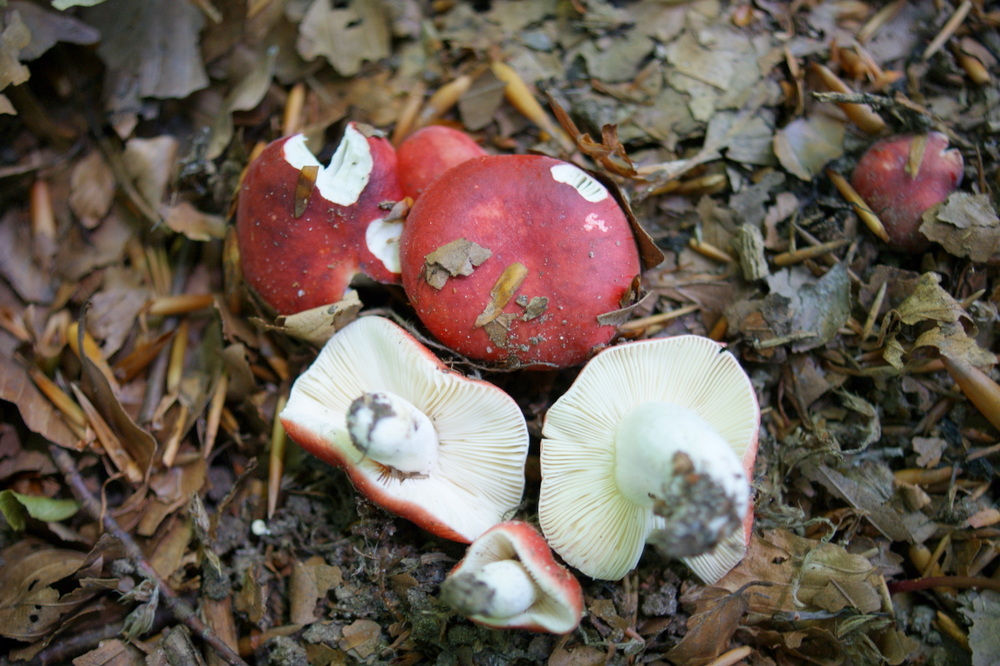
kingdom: Fungi
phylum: Basidiomycota
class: Agaricomycetes
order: Russulales
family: Russulaceae
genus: Russula
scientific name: Russula nobilis
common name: lille gift-skørhat
